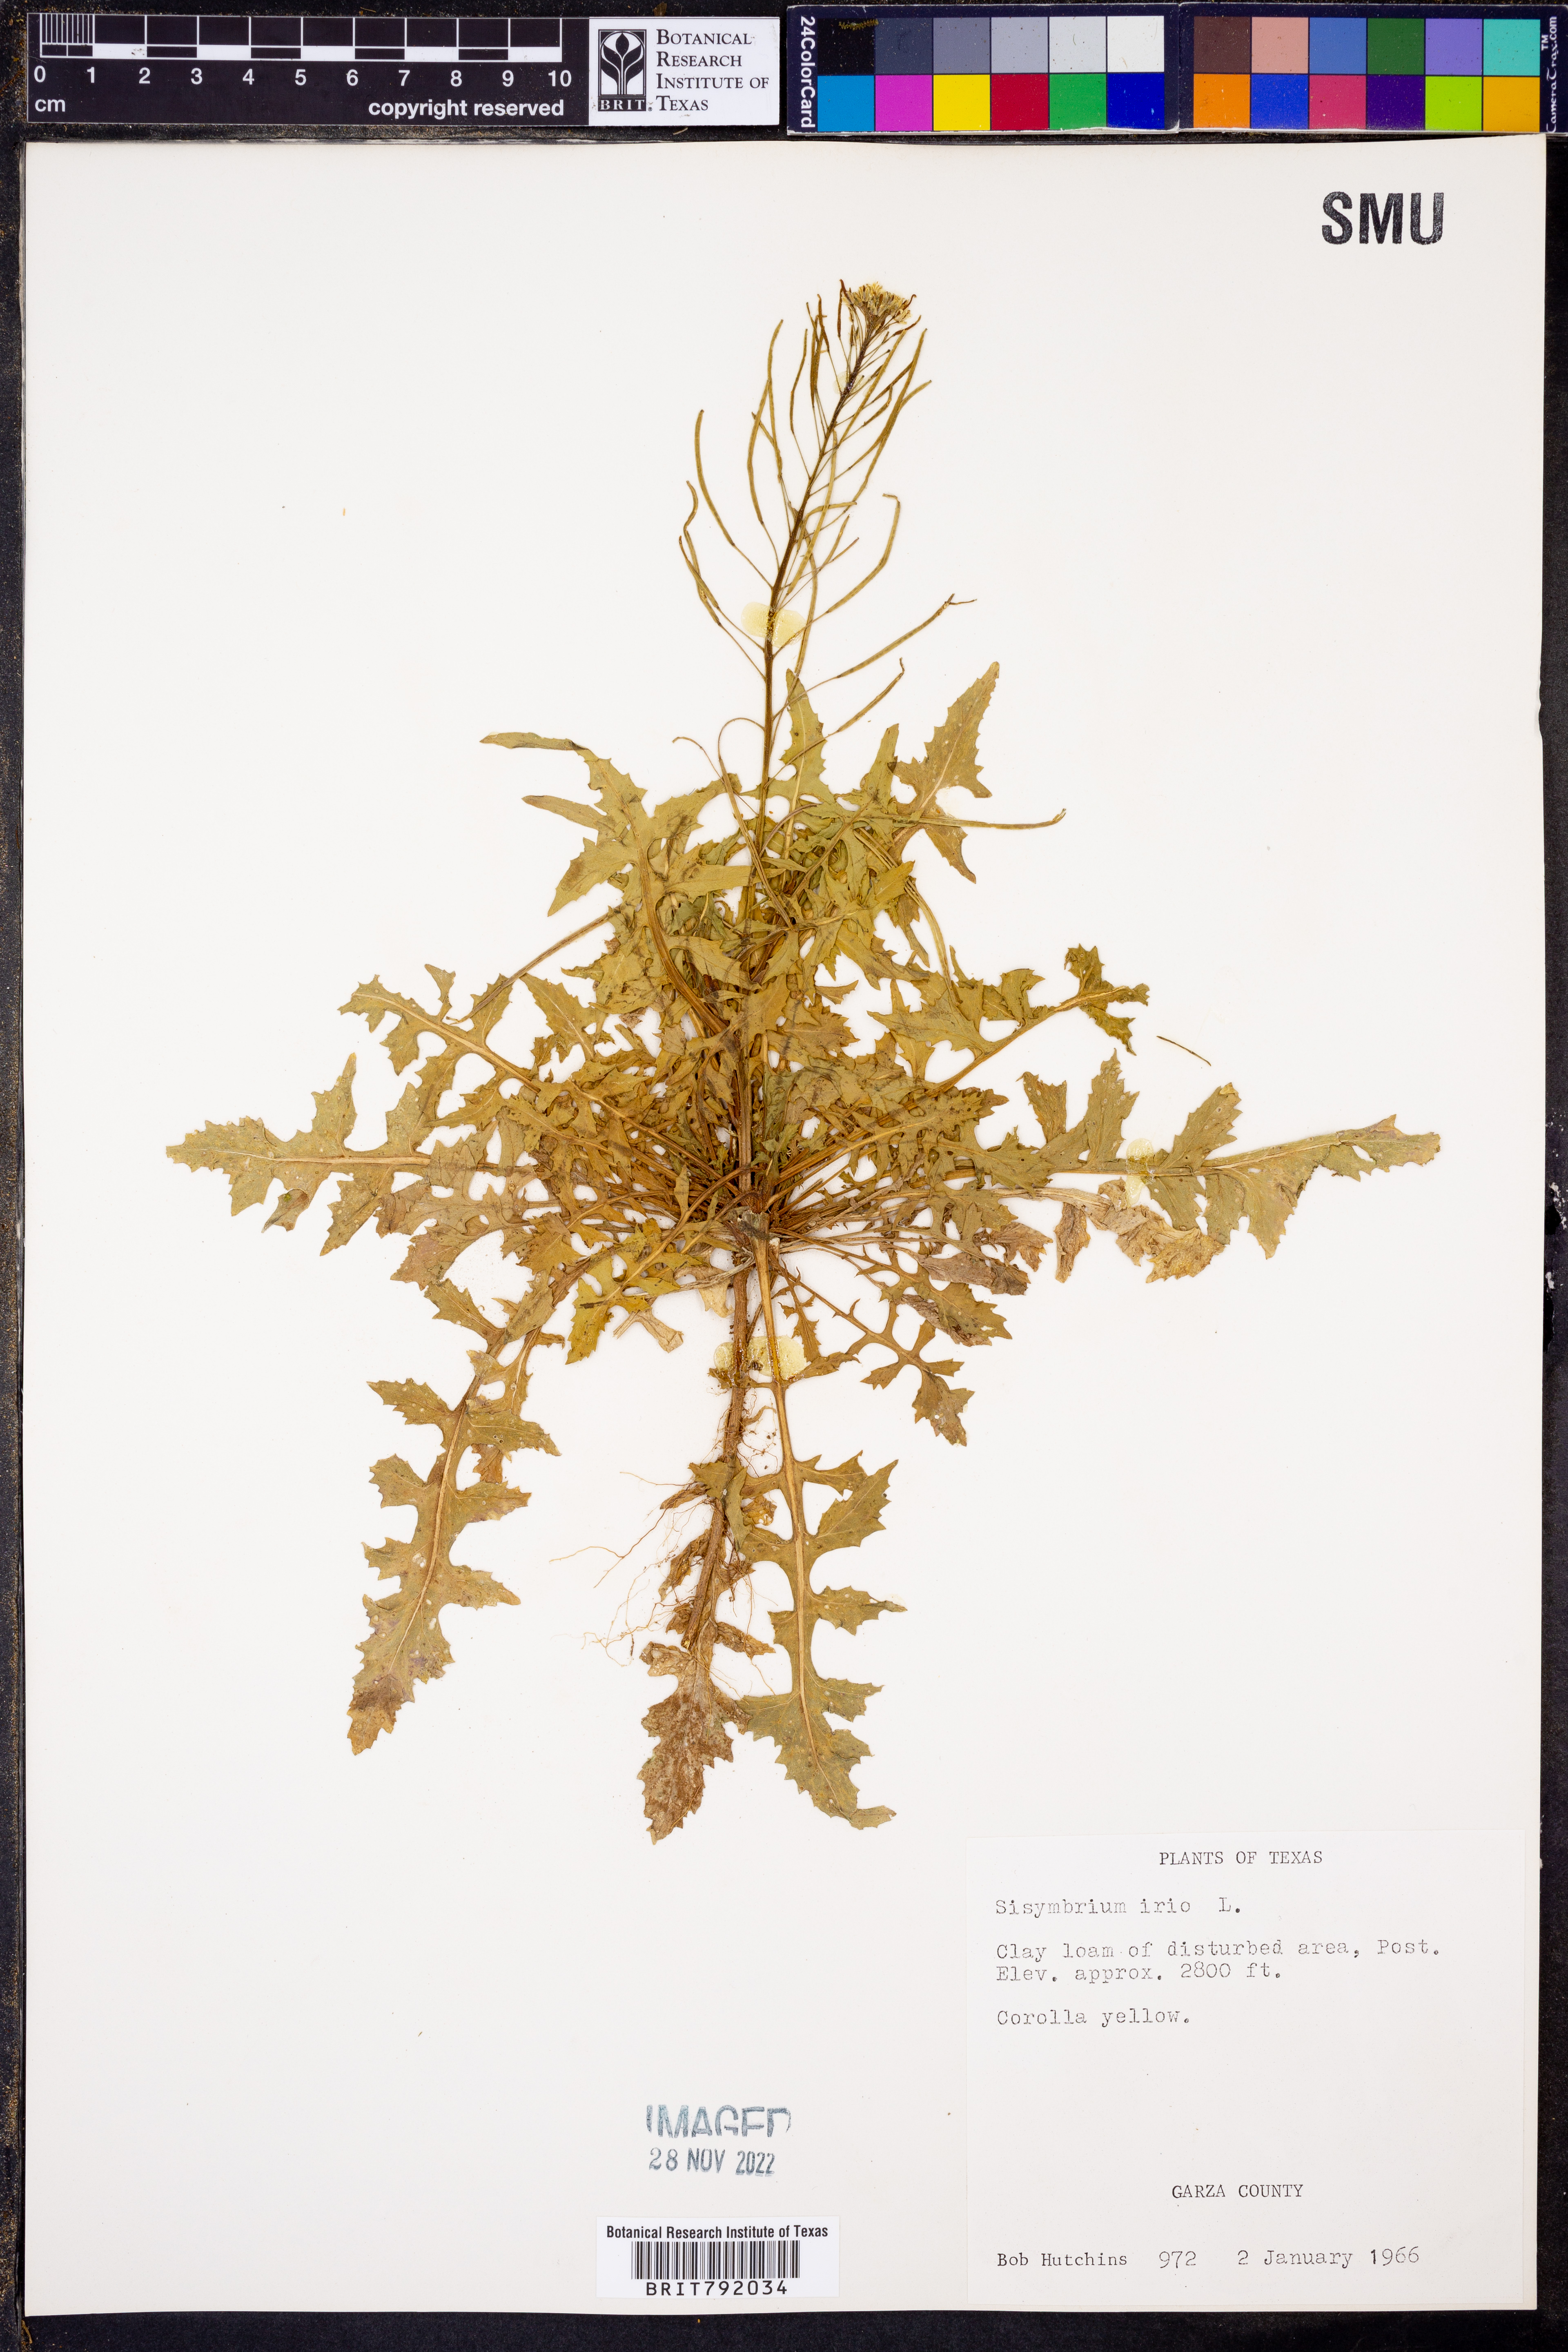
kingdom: Plantae
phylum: Tracheophyta
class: Magnoliopsida
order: Brassicales
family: Brassicaceae
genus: Sisymbrium
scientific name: Sisymbrium irio
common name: London rocket
